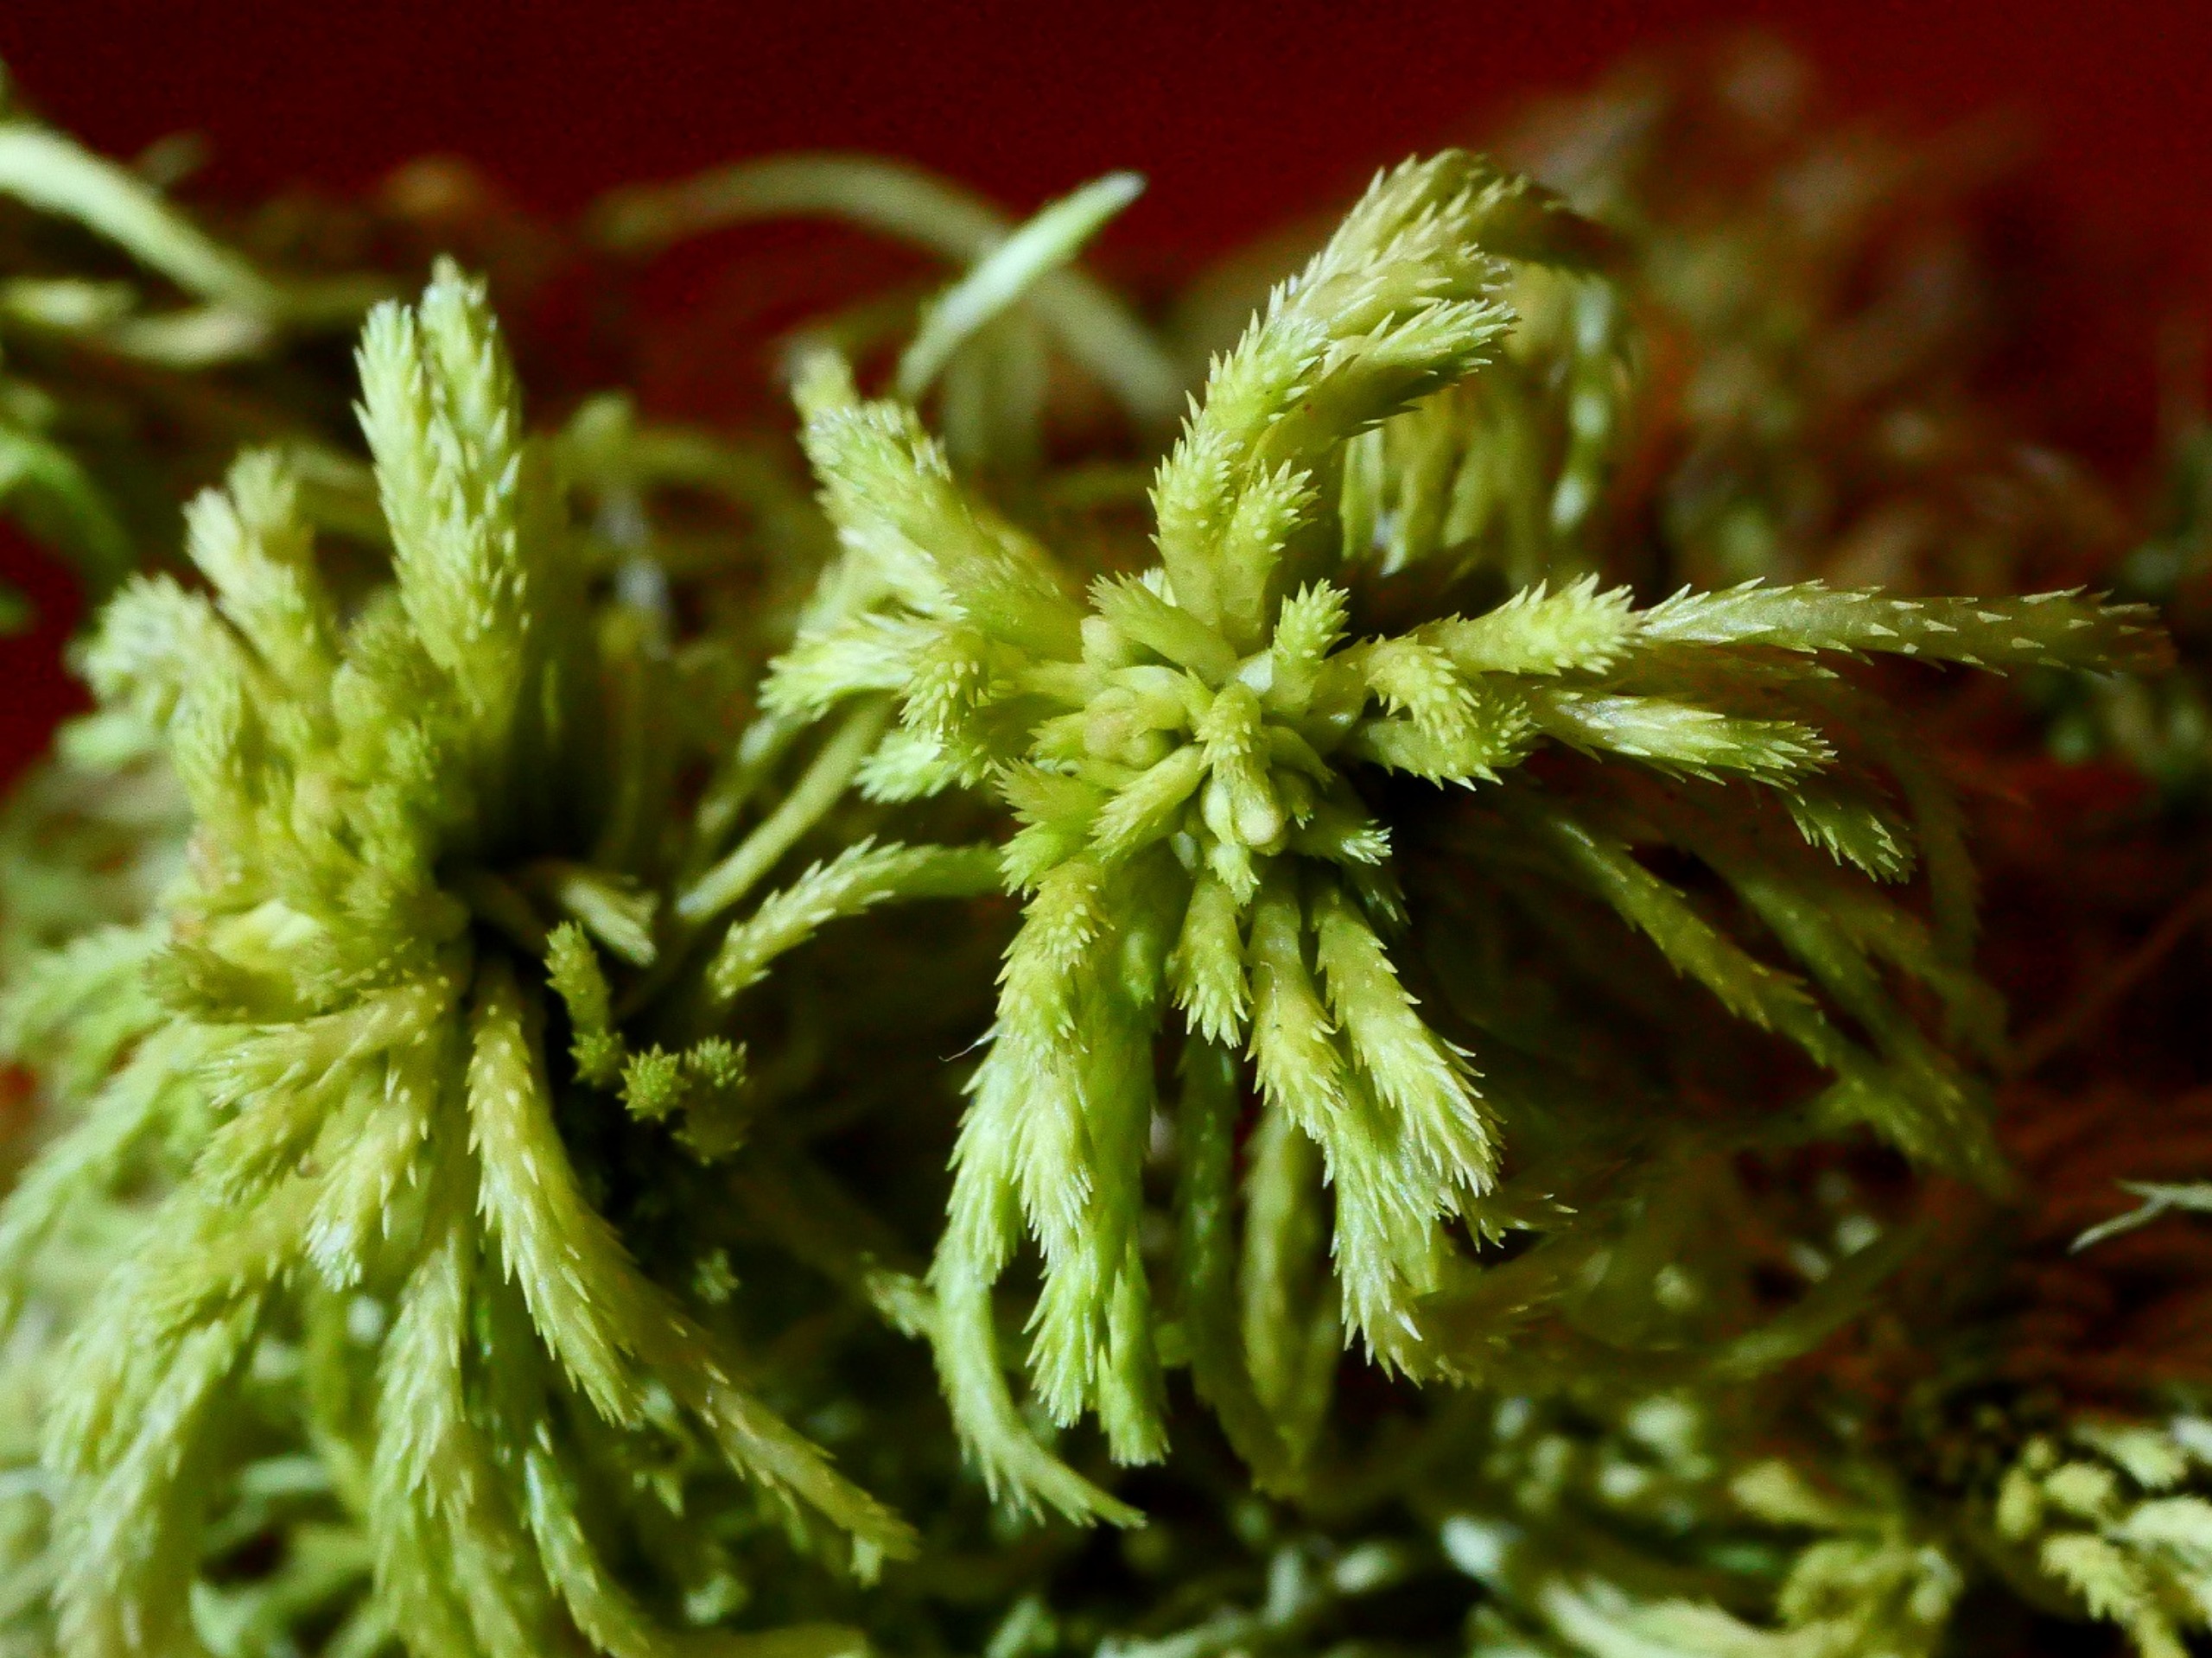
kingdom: Plantae
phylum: Bryophyta
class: Sphagnopsida
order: Sphagnales
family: Sphagnaceae
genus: Sphagnum
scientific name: Sphagnum girgensohnii
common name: Stiv tørvemos
